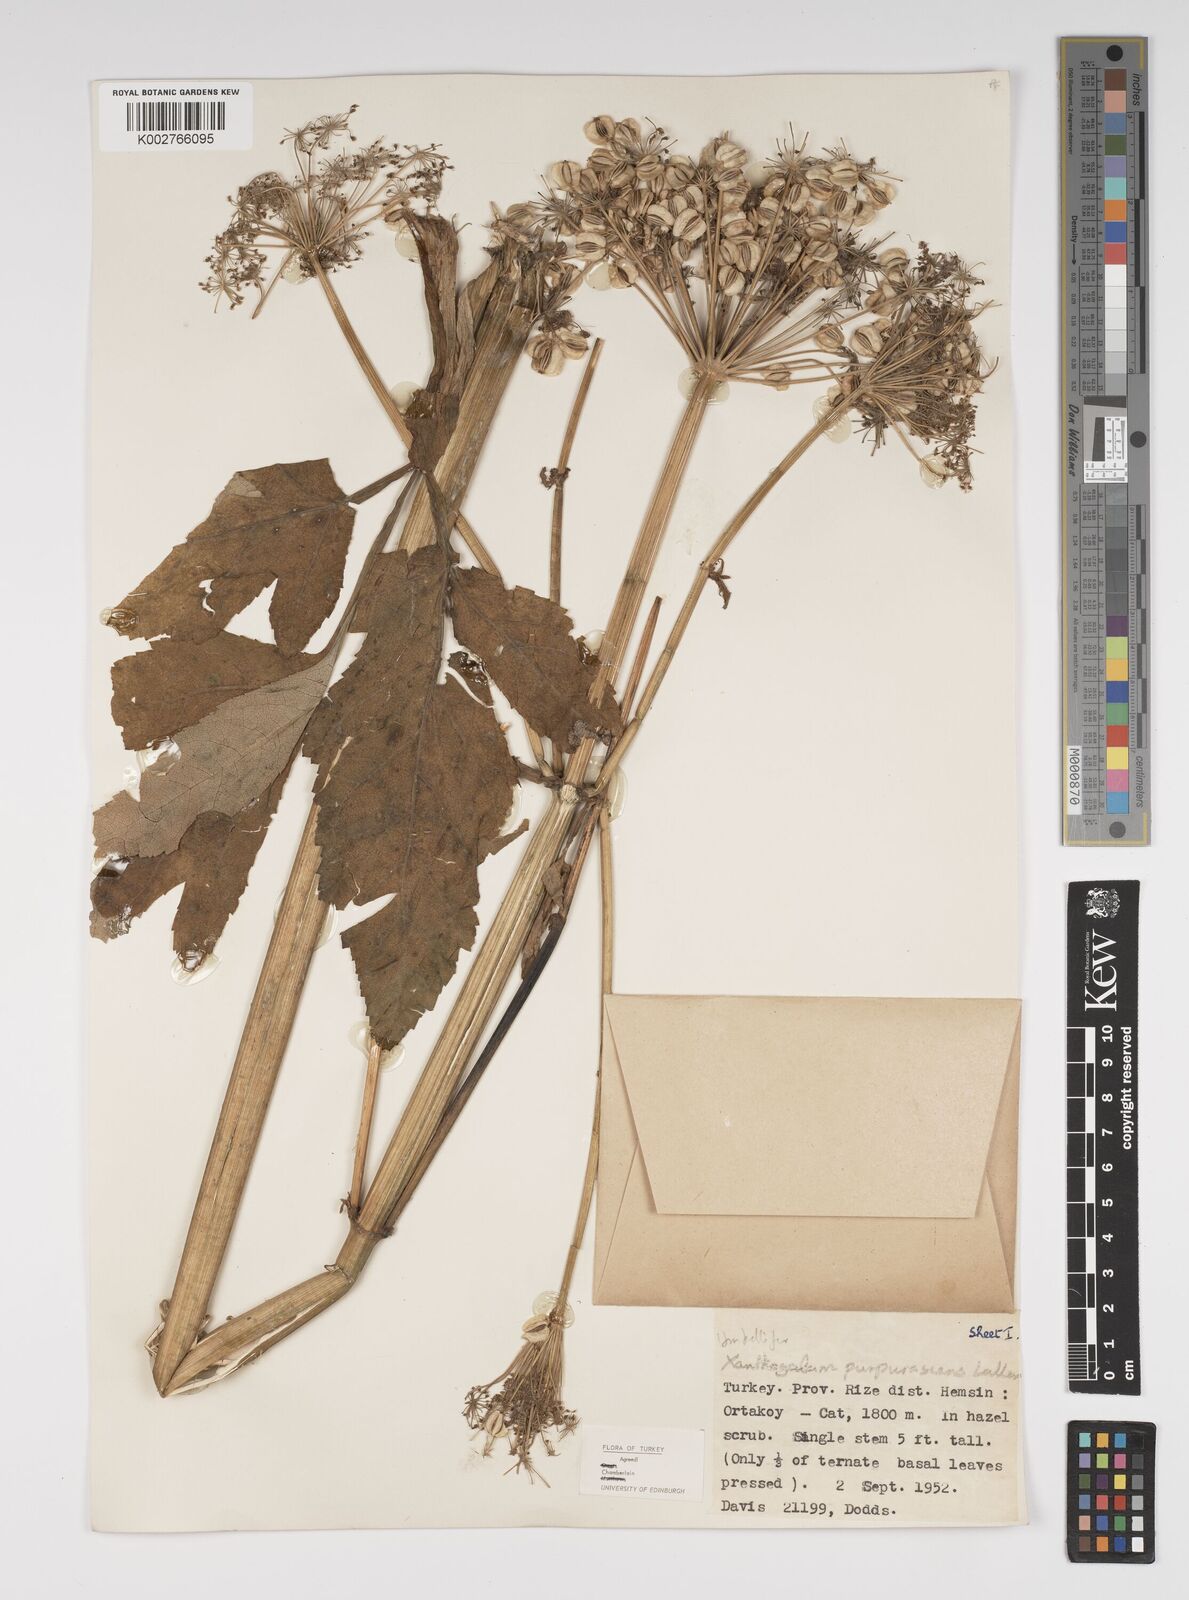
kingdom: Plantae
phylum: Tracheophyta
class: Magnoliopsida
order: Apiales
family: Apiaceae
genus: Xanthogalum
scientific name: Xanthogalum purpurascens
